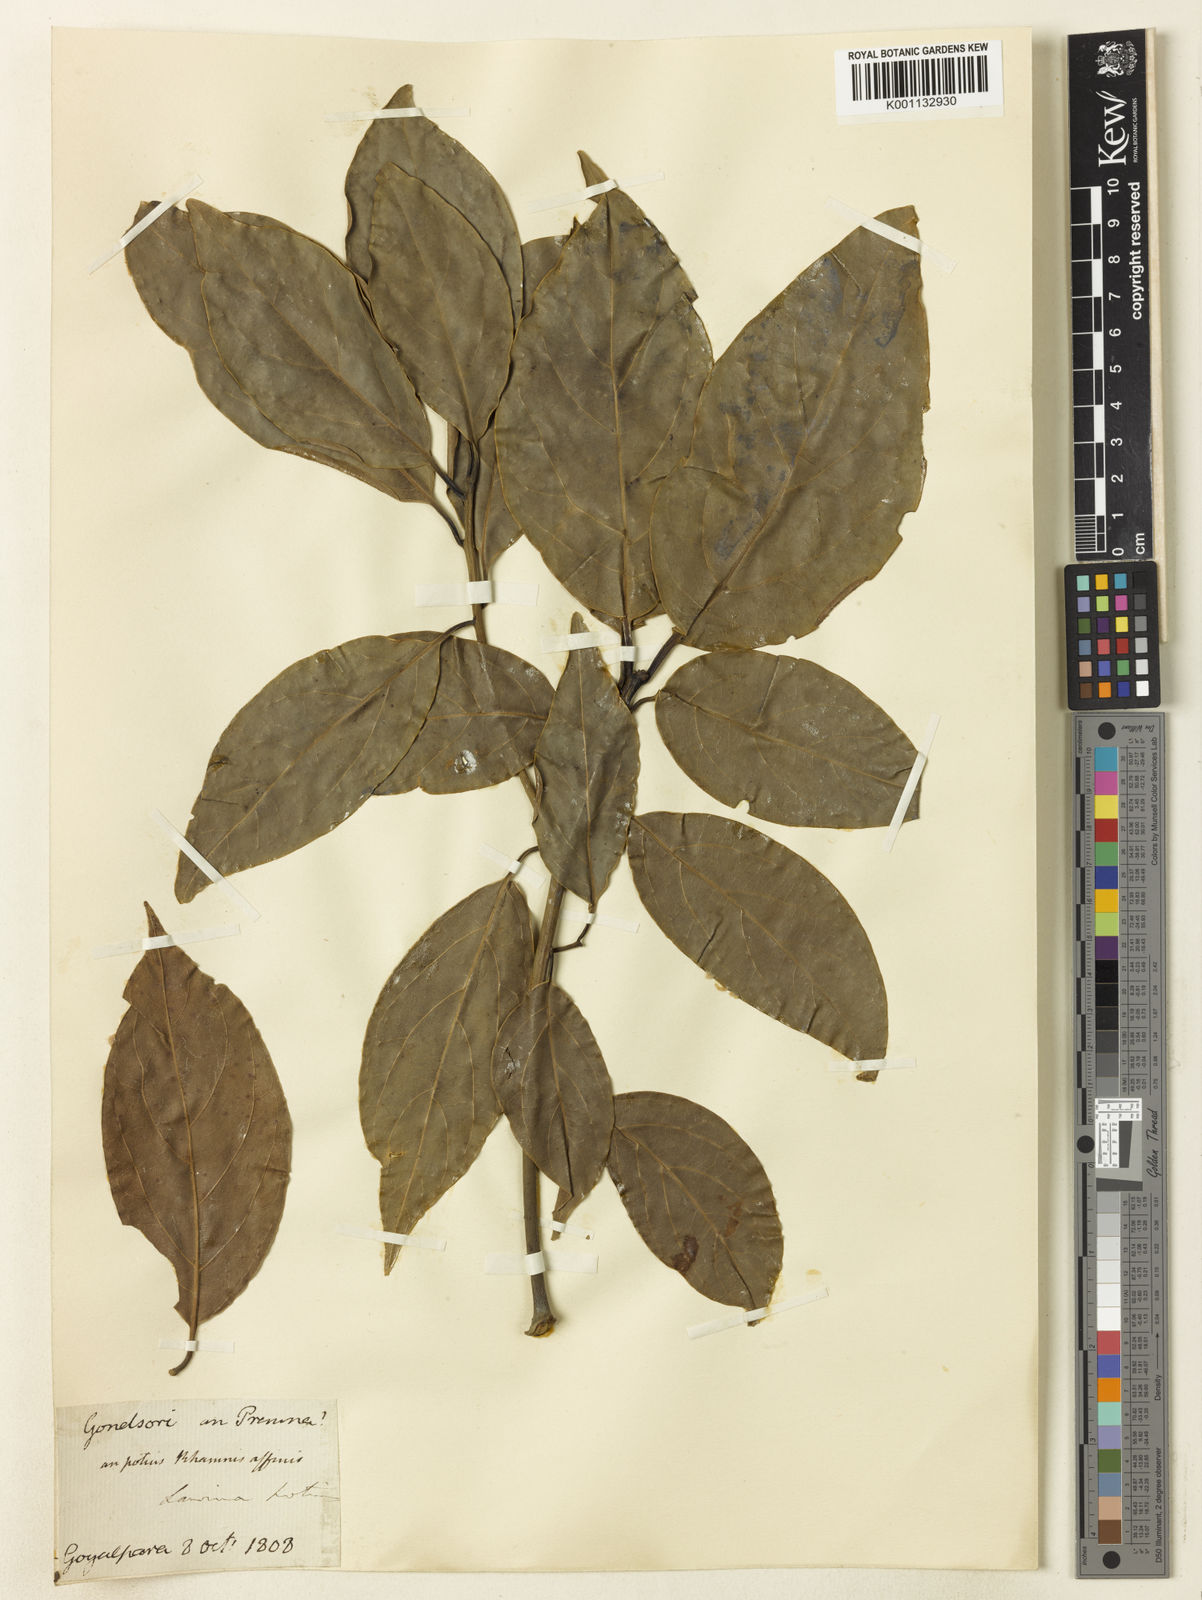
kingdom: Plantae
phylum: Tracheophyta
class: Magnoliopsida
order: Laurales
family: Lauraceae
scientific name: Lauraceae
